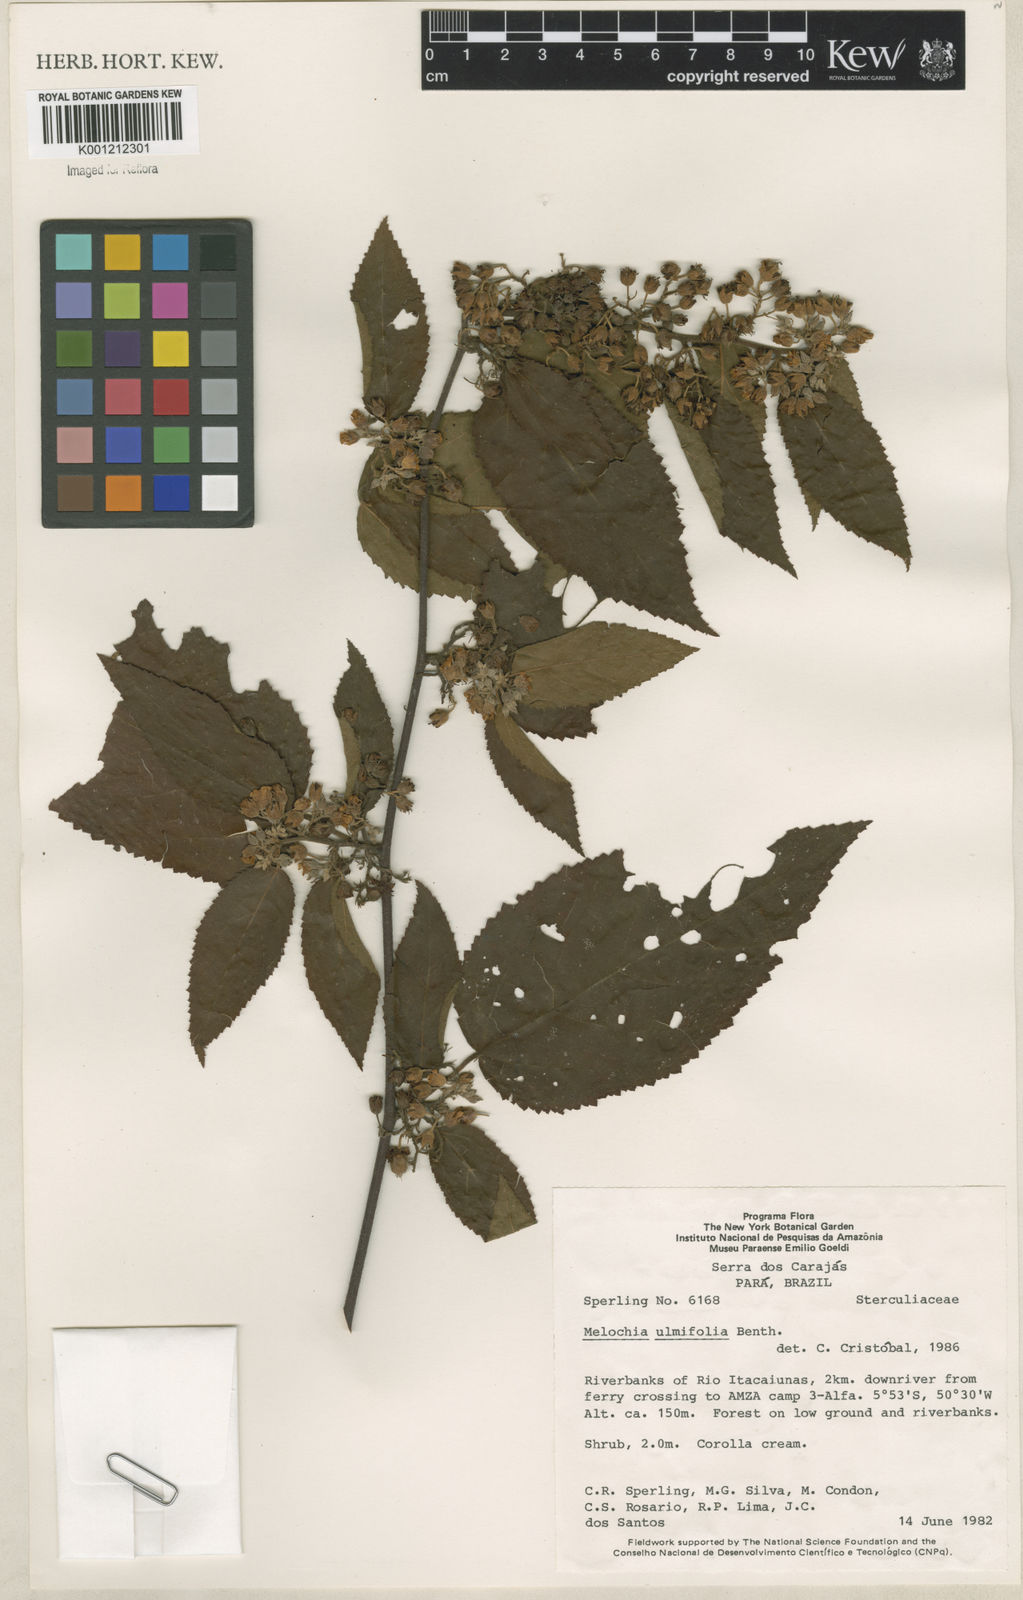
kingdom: Plantae
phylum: Tracheophyta
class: Magnoliopsida
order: Malvales
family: Malvaceae
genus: Melochia
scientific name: Melochia ulmifolia
